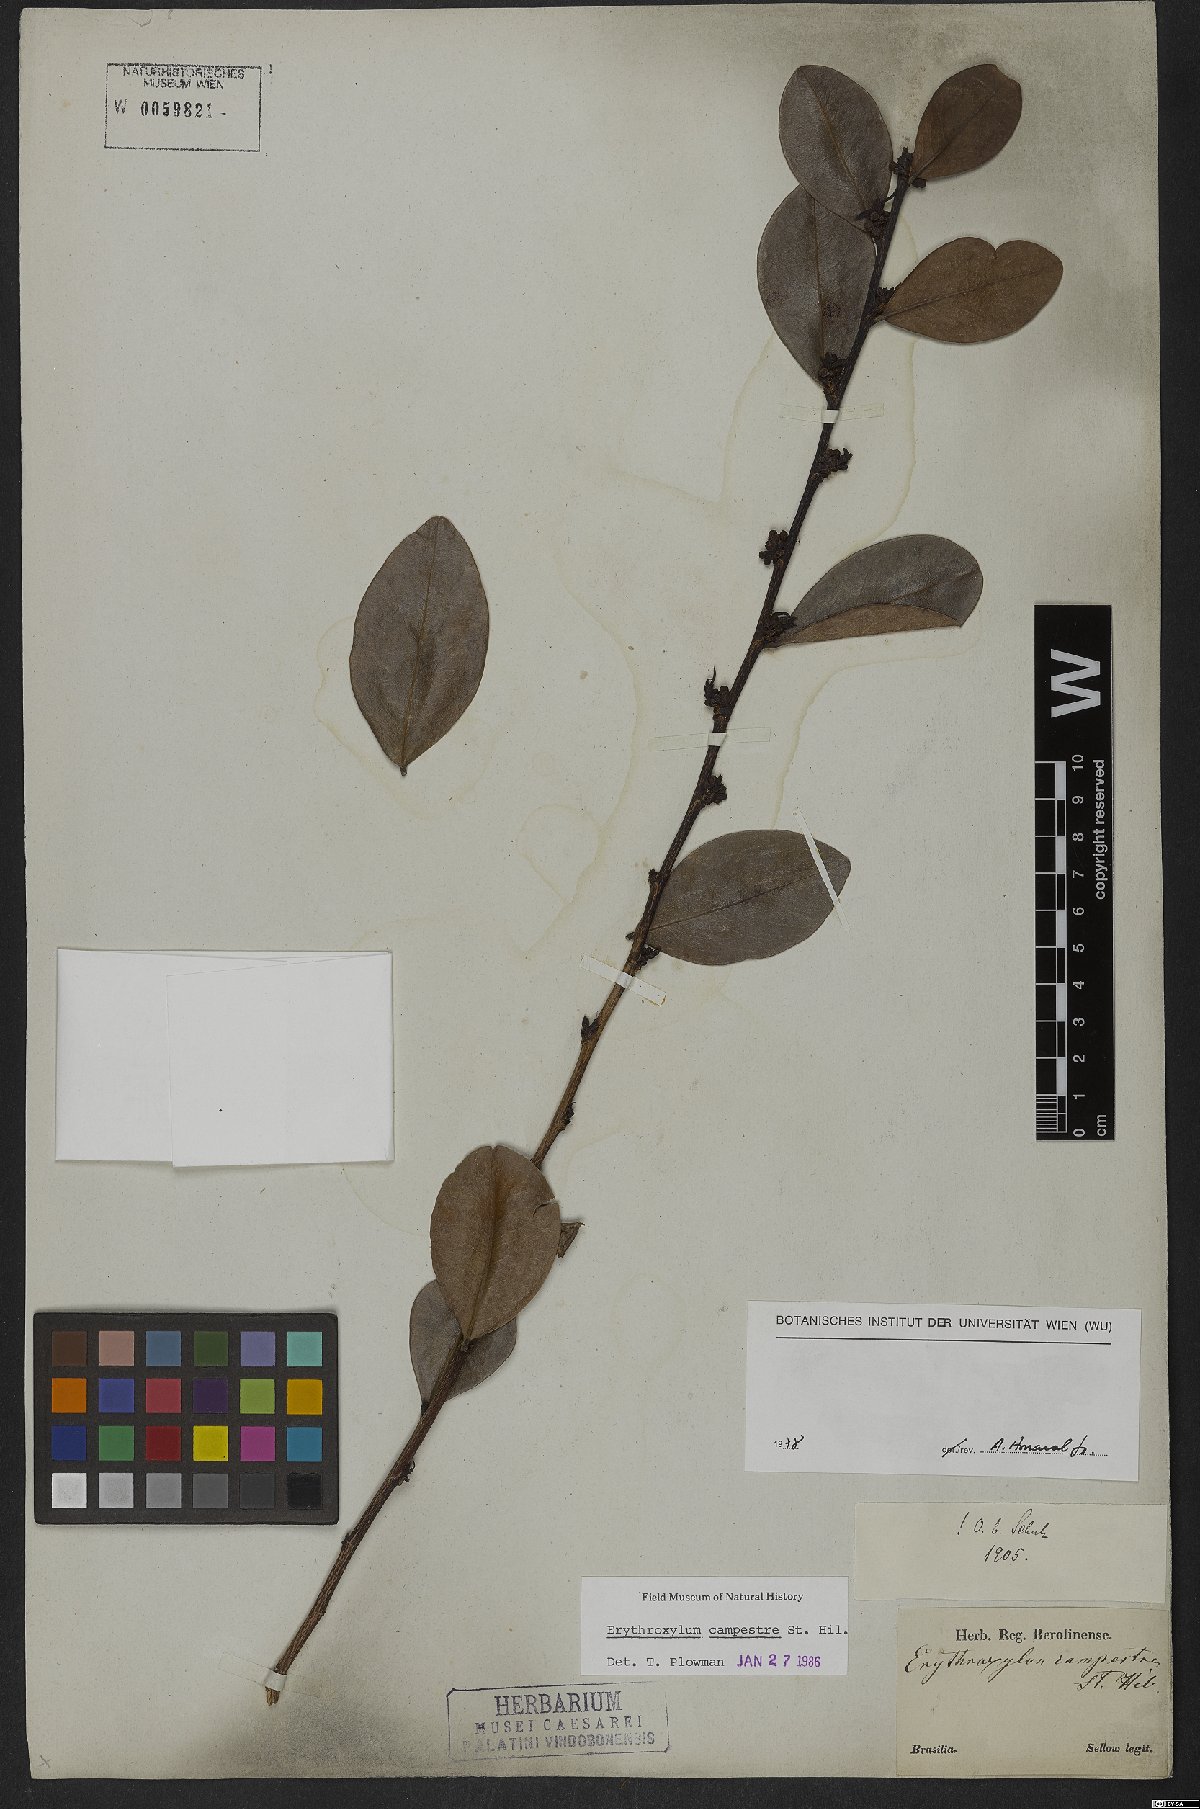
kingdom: Plantae
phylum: Tracheophyta
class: Magnoliopsida
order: Malpighiales
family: Erythroxylaceae
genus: Erythroxylum
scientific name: Erythroxylum campestre
